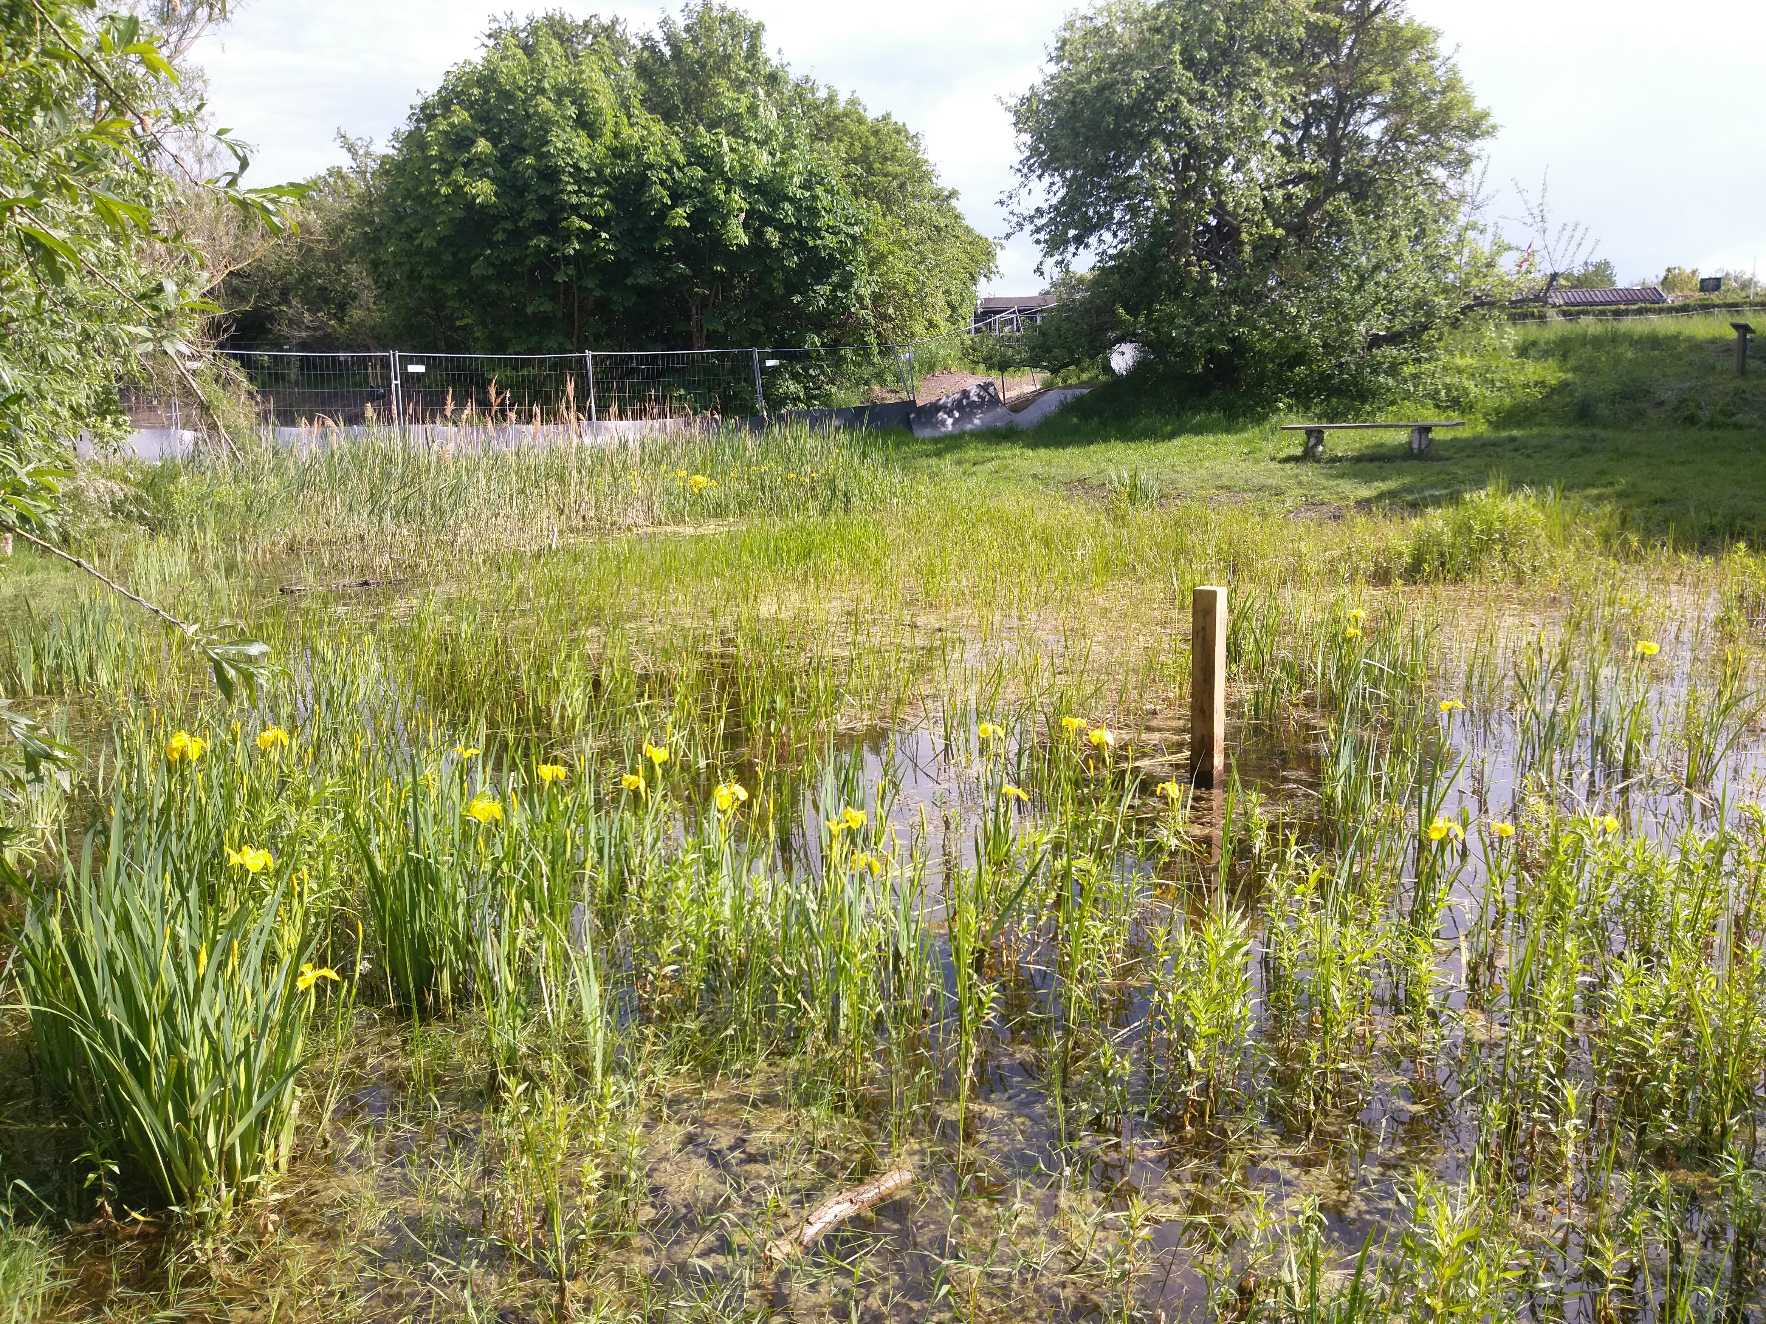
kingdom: Plantae
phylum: Tracheophyta
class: Liliopsida
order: Asparagales
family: Iridaceae
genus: Iris
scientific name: Iris pseudacorus
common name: Gul iris
